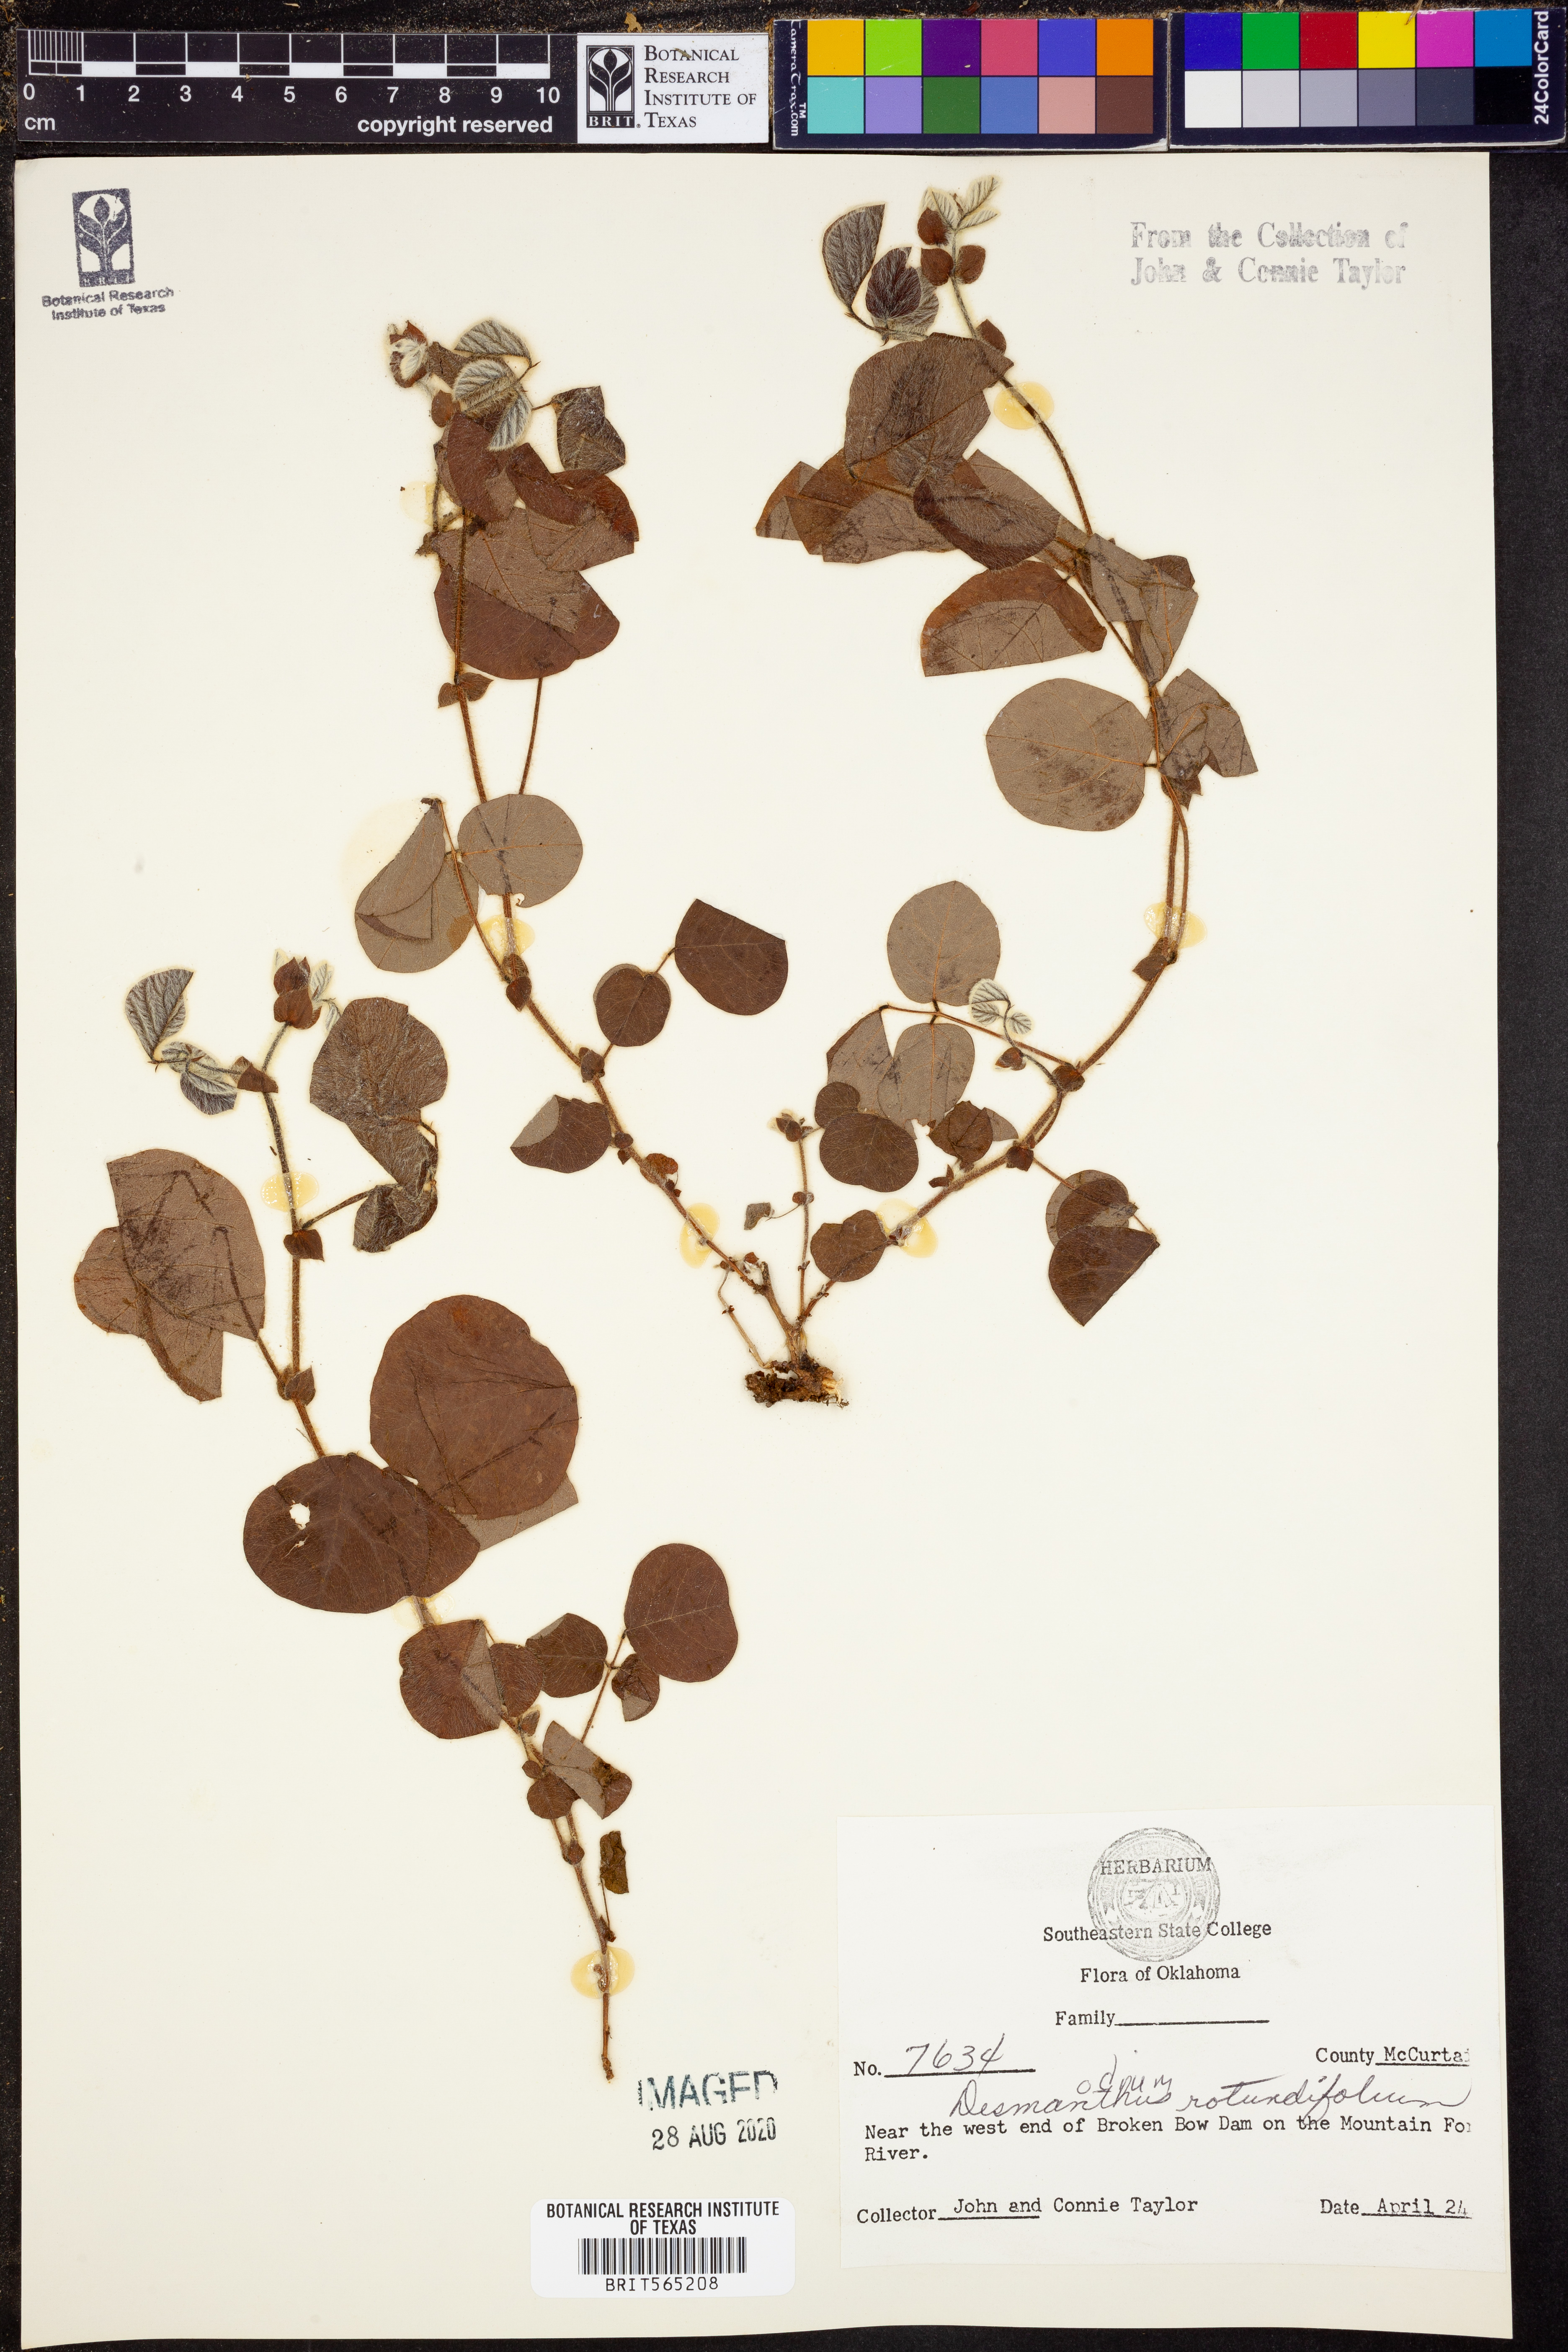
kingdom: Plantae
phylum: Tracheophyta
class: Magnoliopsida
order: Fabales
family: Fabaceae
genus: Desmodium
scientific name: Desmodium rotundifolium
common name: Dollarleaf
